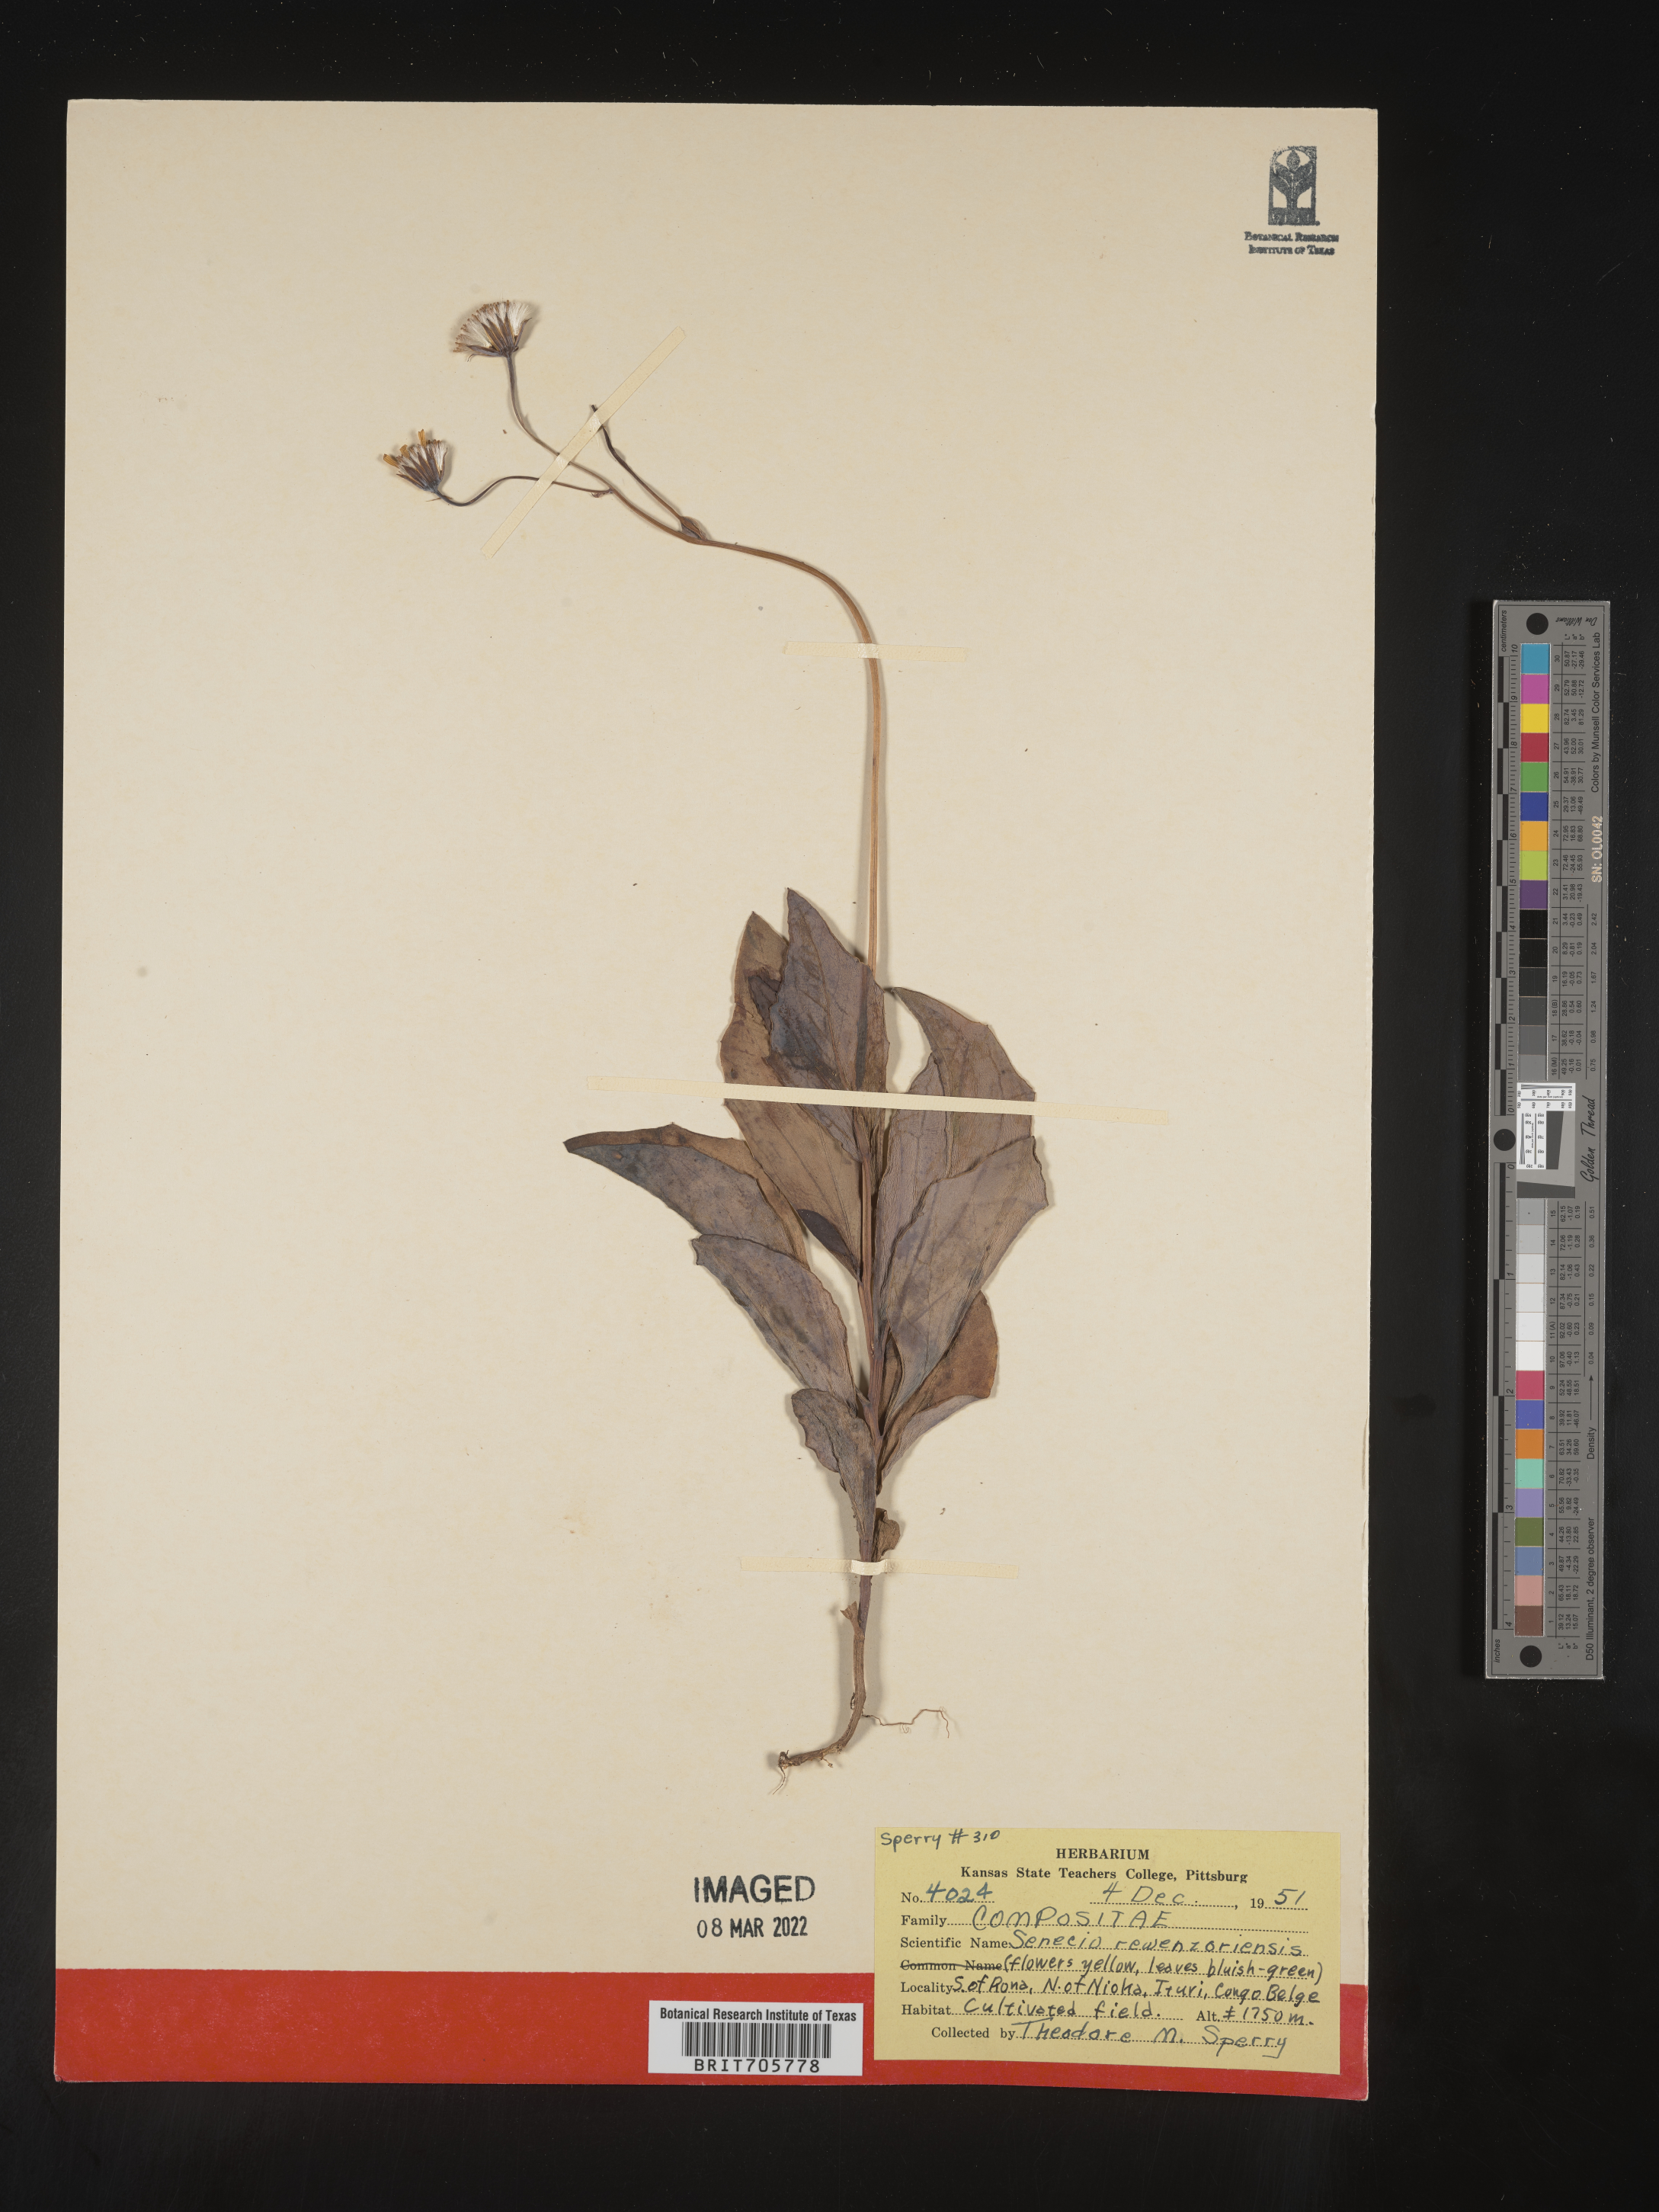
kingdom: Plantae
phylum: Tracheophyta
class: Magnoliopsida
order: Asterales
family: Asteraceae
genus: Senecio
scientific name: Senecio
